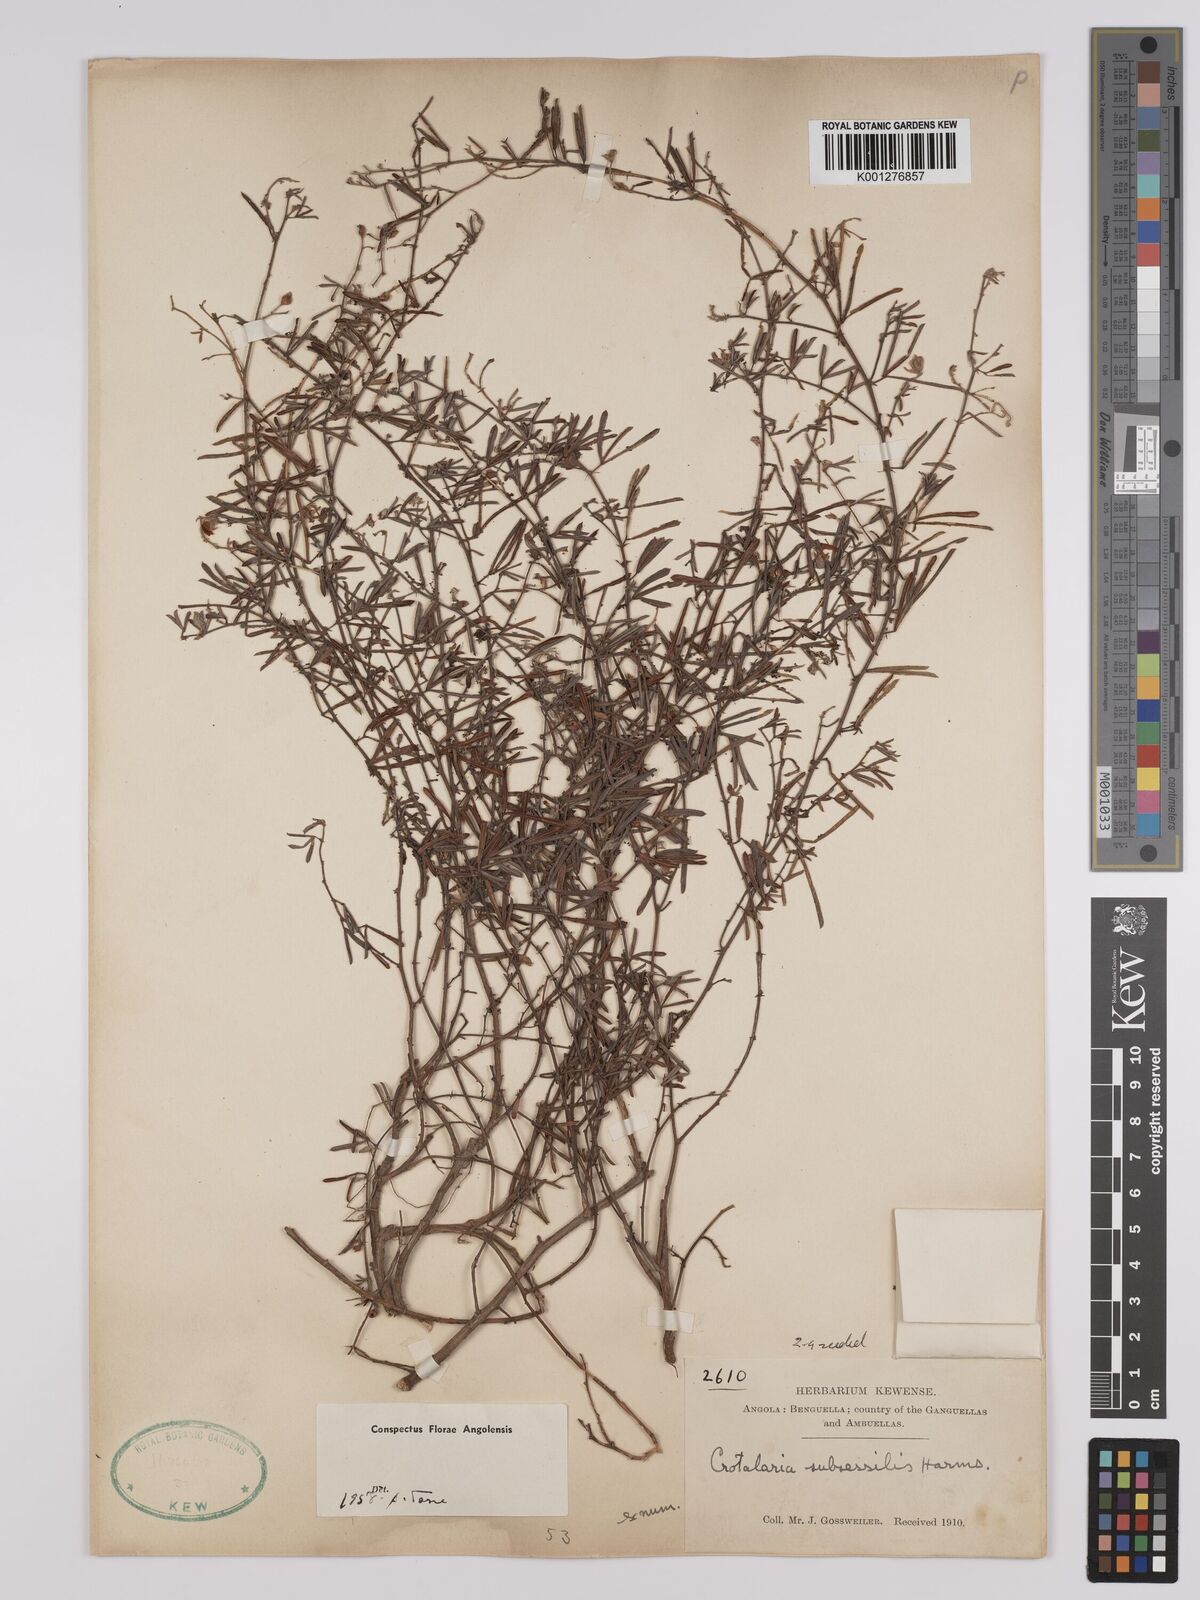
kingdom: Plantae
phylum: Tracheophyta
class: Magnoliopsida
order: Fabales
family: Fabaceae
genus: Crotalaria
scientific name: Crotalaria subsessilis
